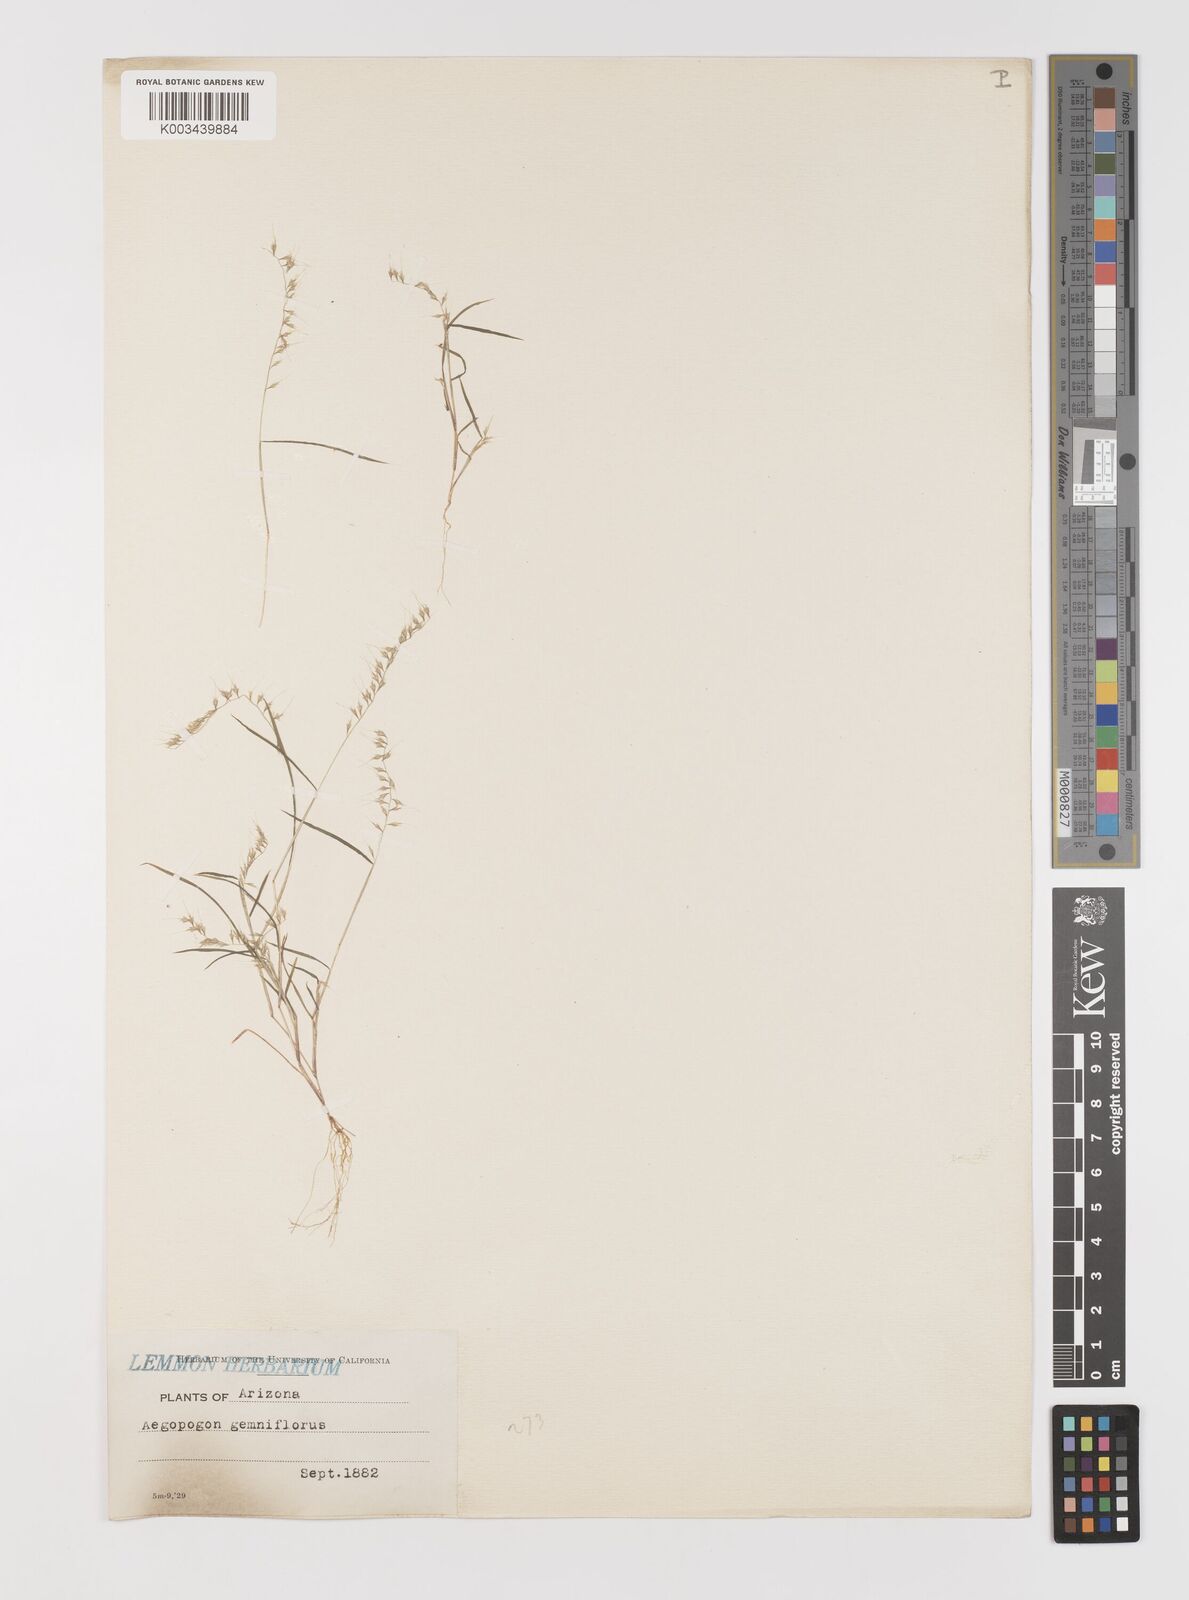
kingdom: Plantae
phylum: Tracheophyta
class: Liliopsida
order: Poales
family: Poaceae
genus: Muhlenbergia
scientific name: Muhlenbergia uniseta
